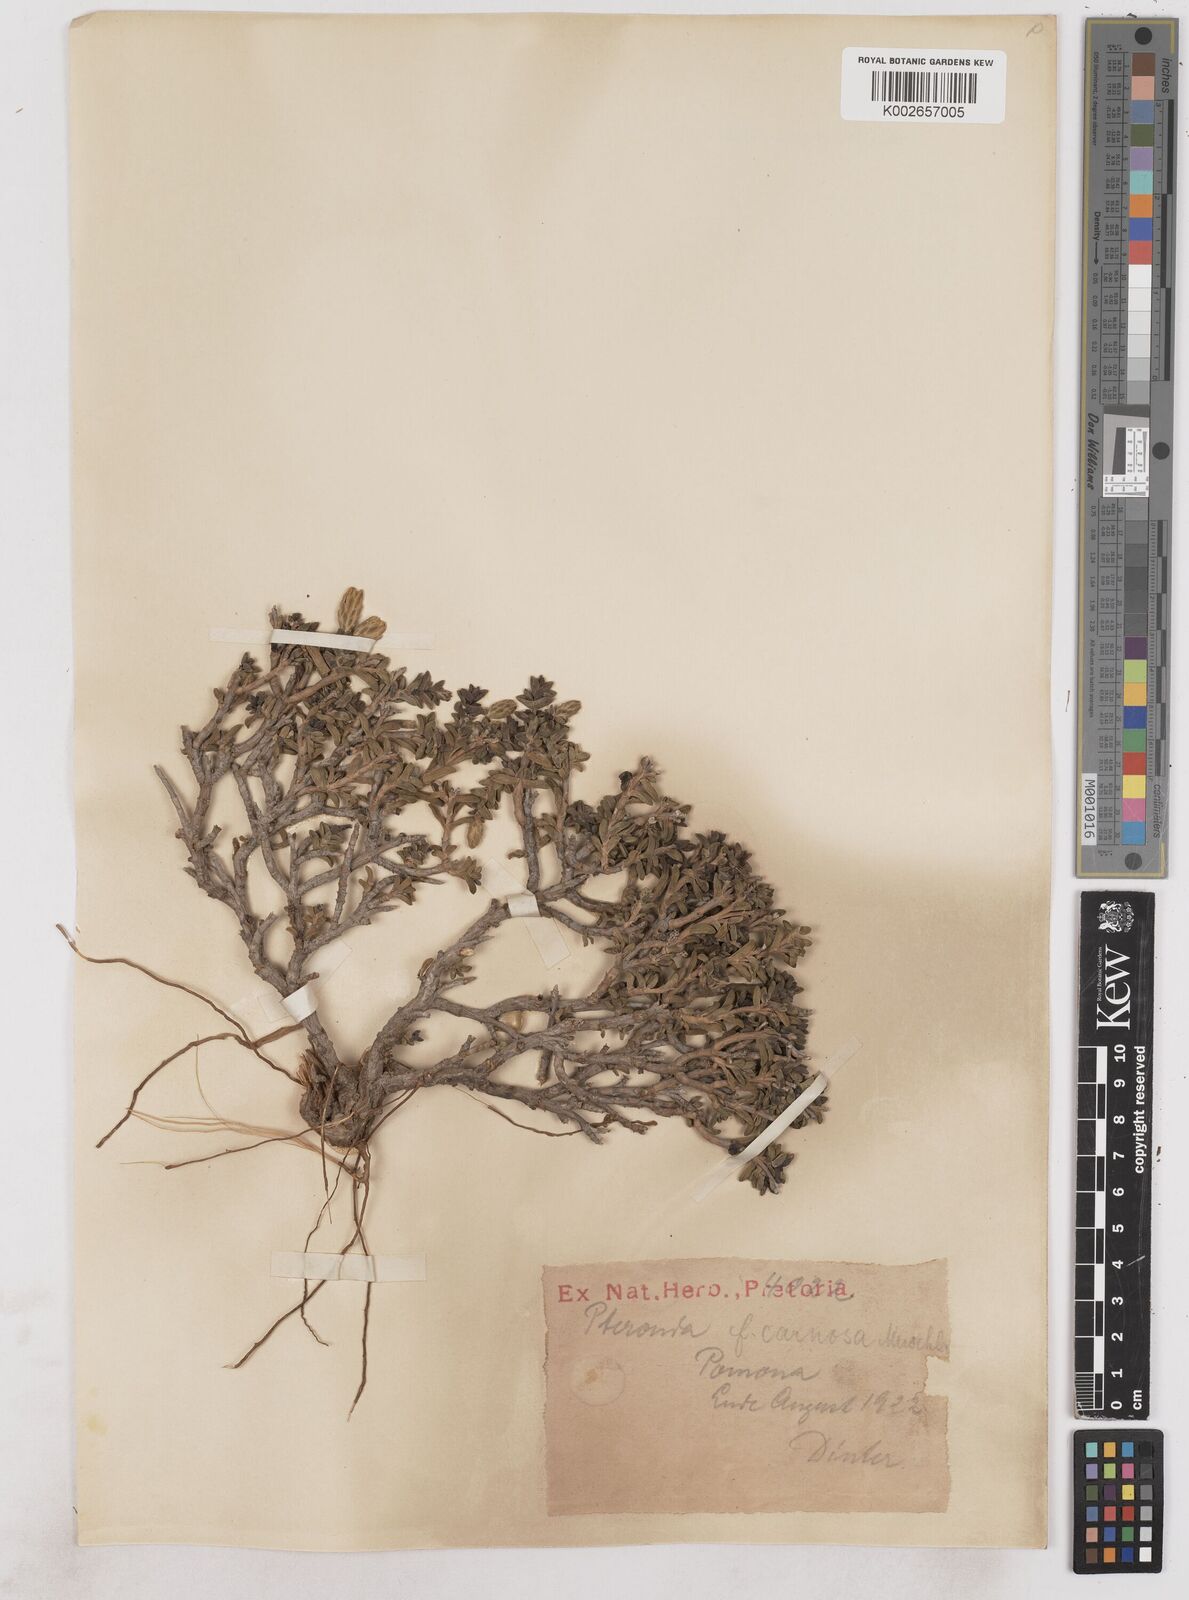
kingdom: Plantae
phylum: Tracheophyta
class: Magnoliopsida
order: Asterales
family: Asteraceae
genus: Pteronia
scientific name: Pteronia spinulosa
